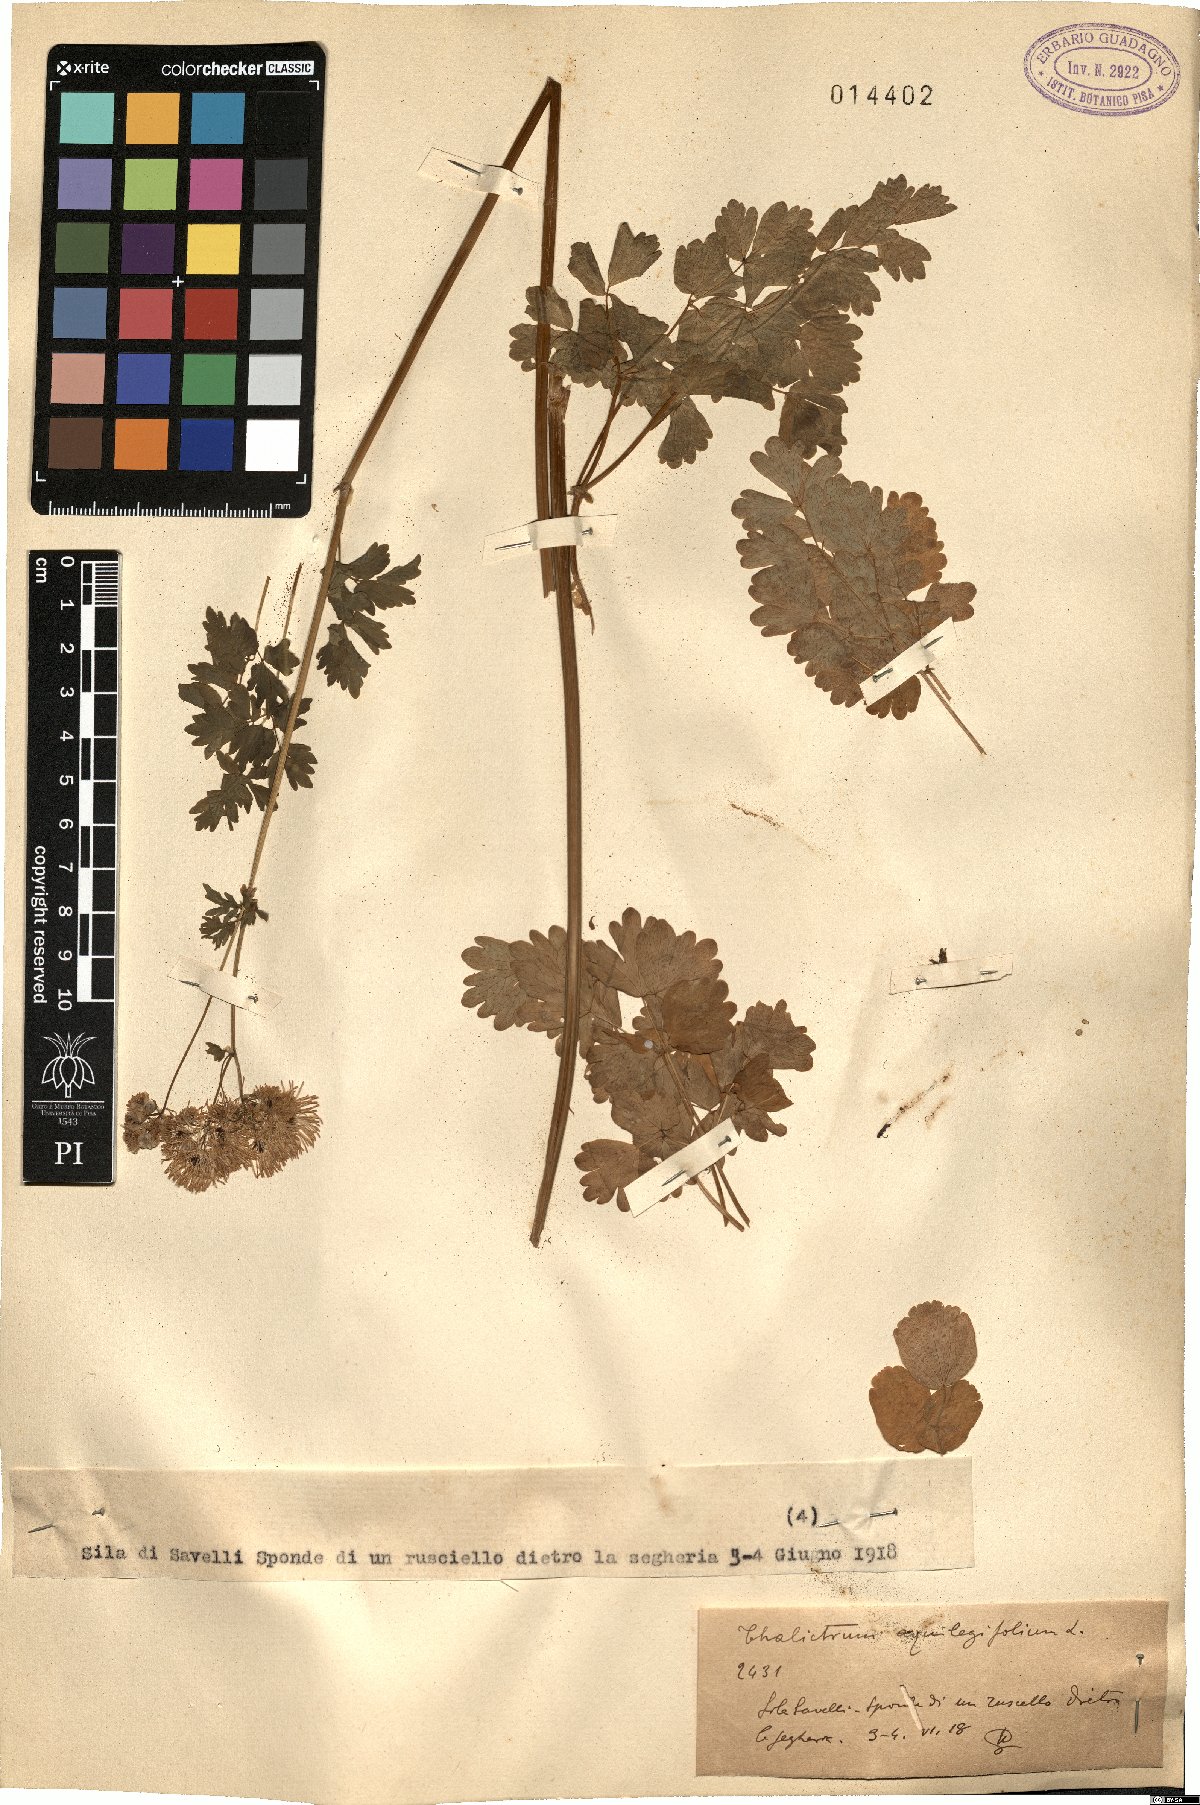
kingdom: Plantae
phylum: Tracheophyta
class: Magnoliopsida
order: Ranunculales
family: Ranunculaceae
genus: Thalictrum
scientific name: Thalictrum aquilegiifolium
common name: French meadow-rue
